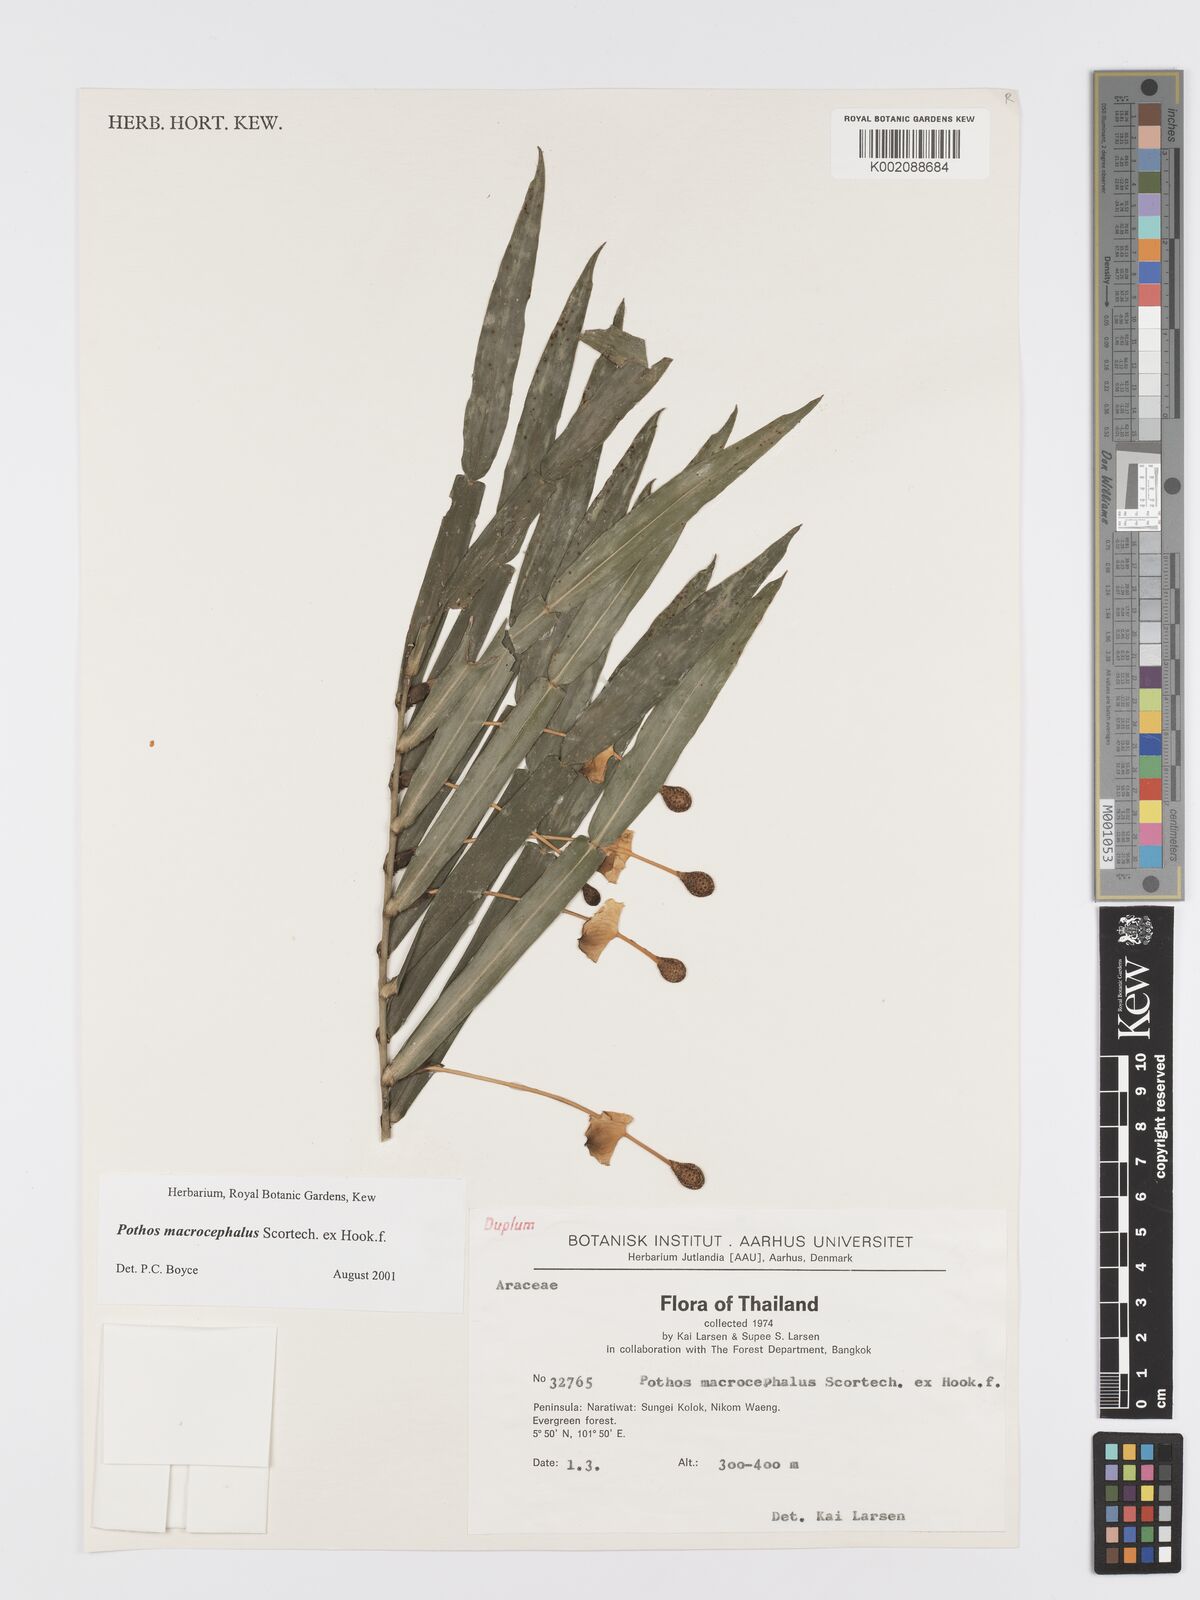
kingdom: Plantae
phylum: Tracheophyta
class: Liliopsida
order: Alismatales
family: Araceae
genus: Pothos
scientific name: Pothos macrocephalus
